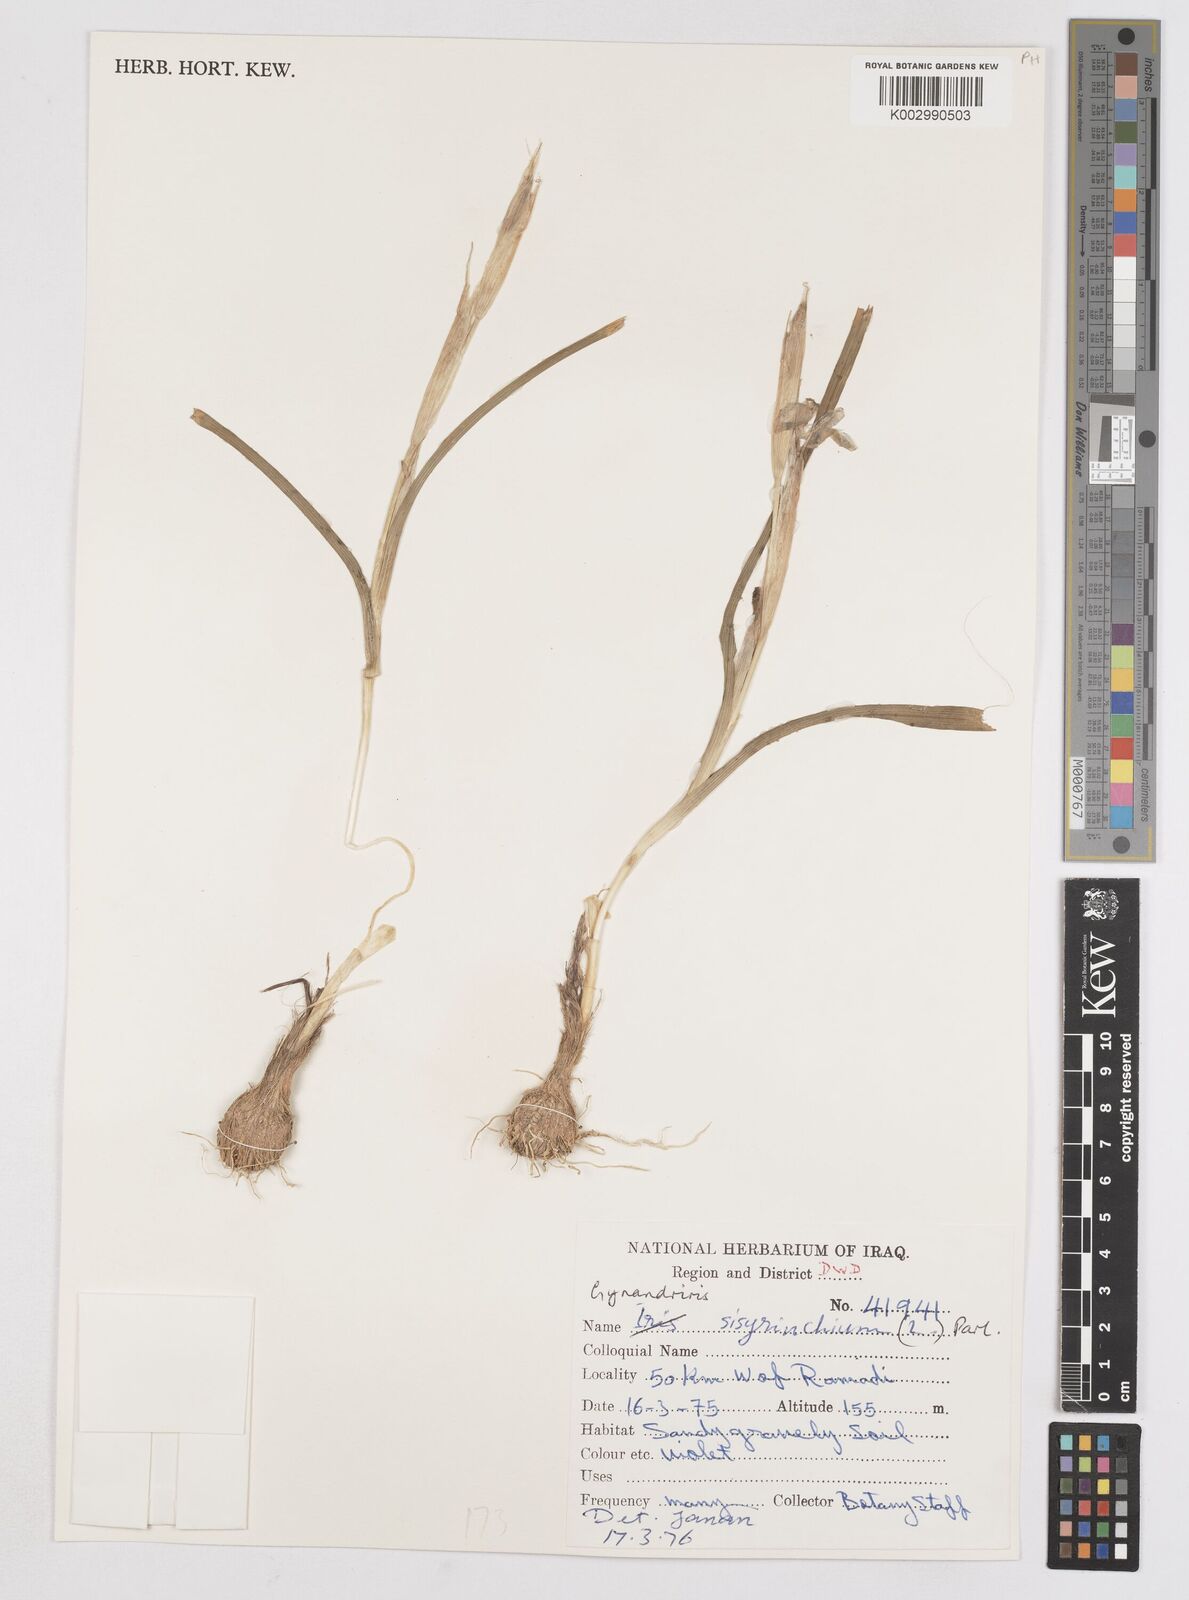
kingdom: Plantae
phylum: Tracheophyta
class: Liliopsida
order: Asparagales
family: Iridaceae
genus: Moraea
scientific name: Moraea sisyrinchium
